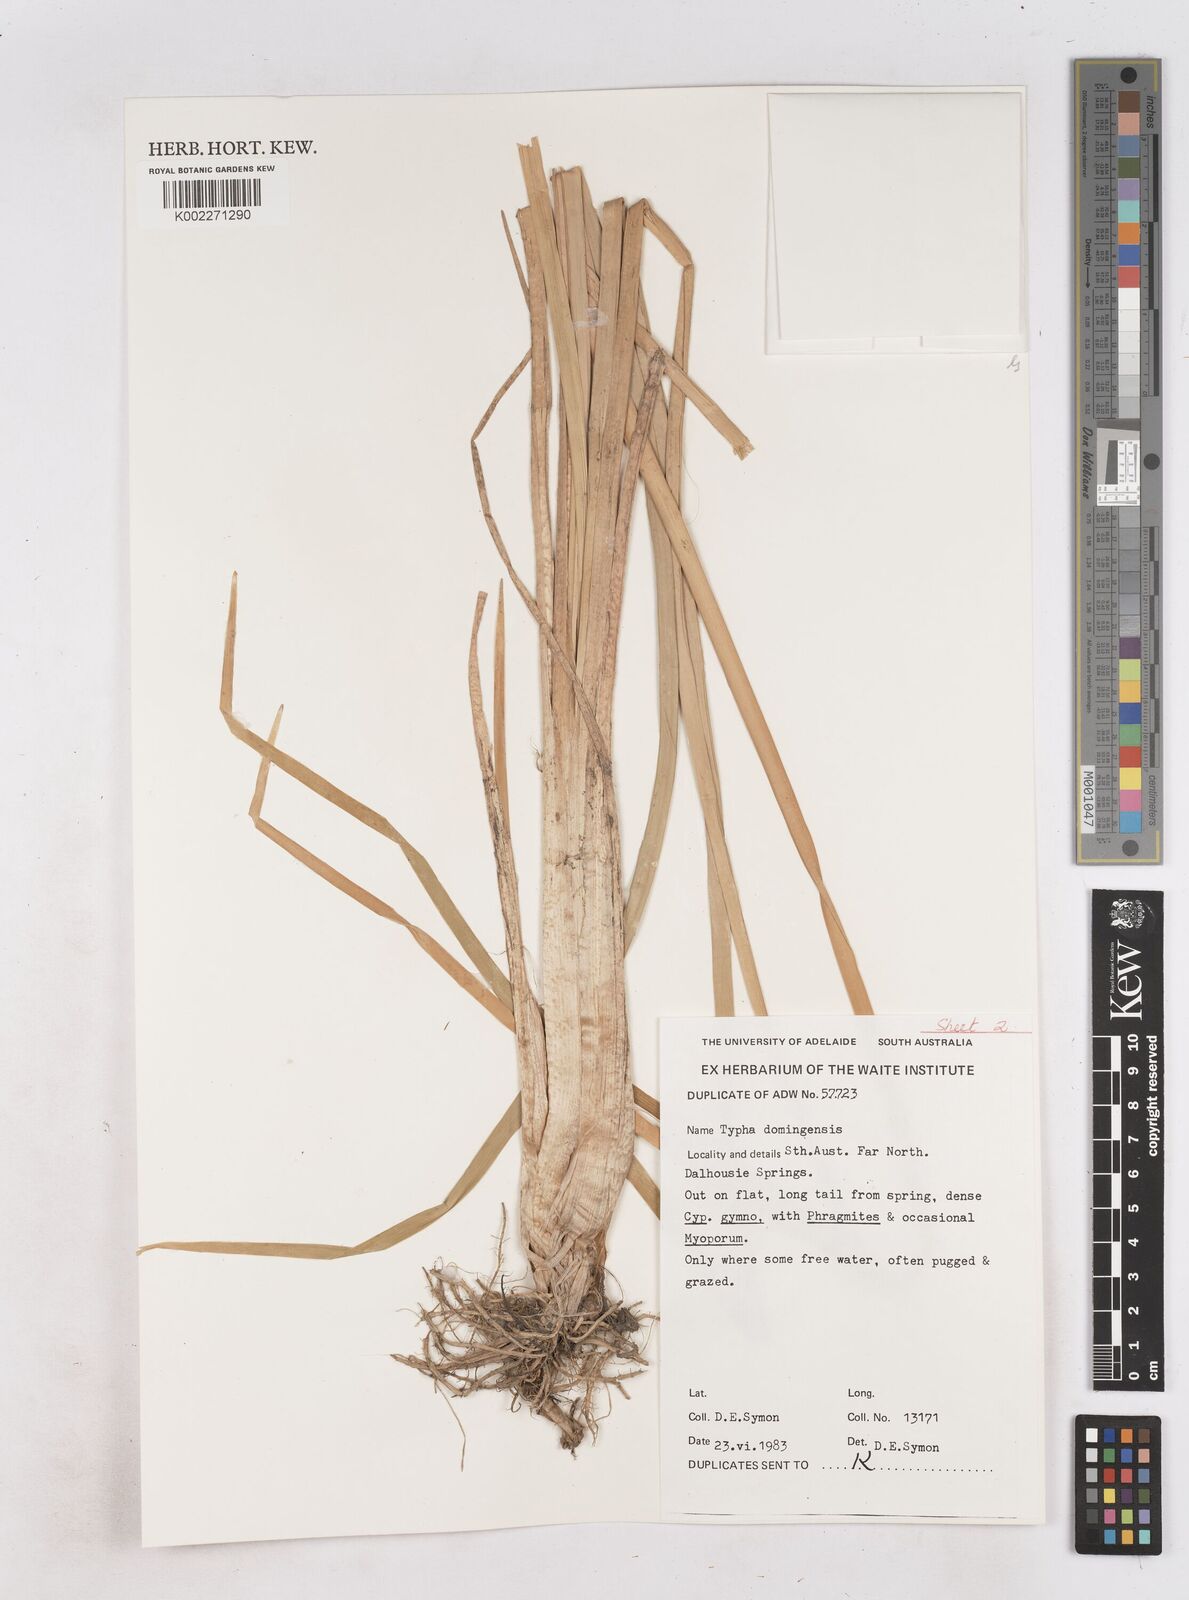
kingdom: Plantae
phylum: Tracheophyta
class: Liliopsida
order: Poales
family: Typhaceae
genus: Typha
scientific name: Typha domingensis
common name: Southern cattail
